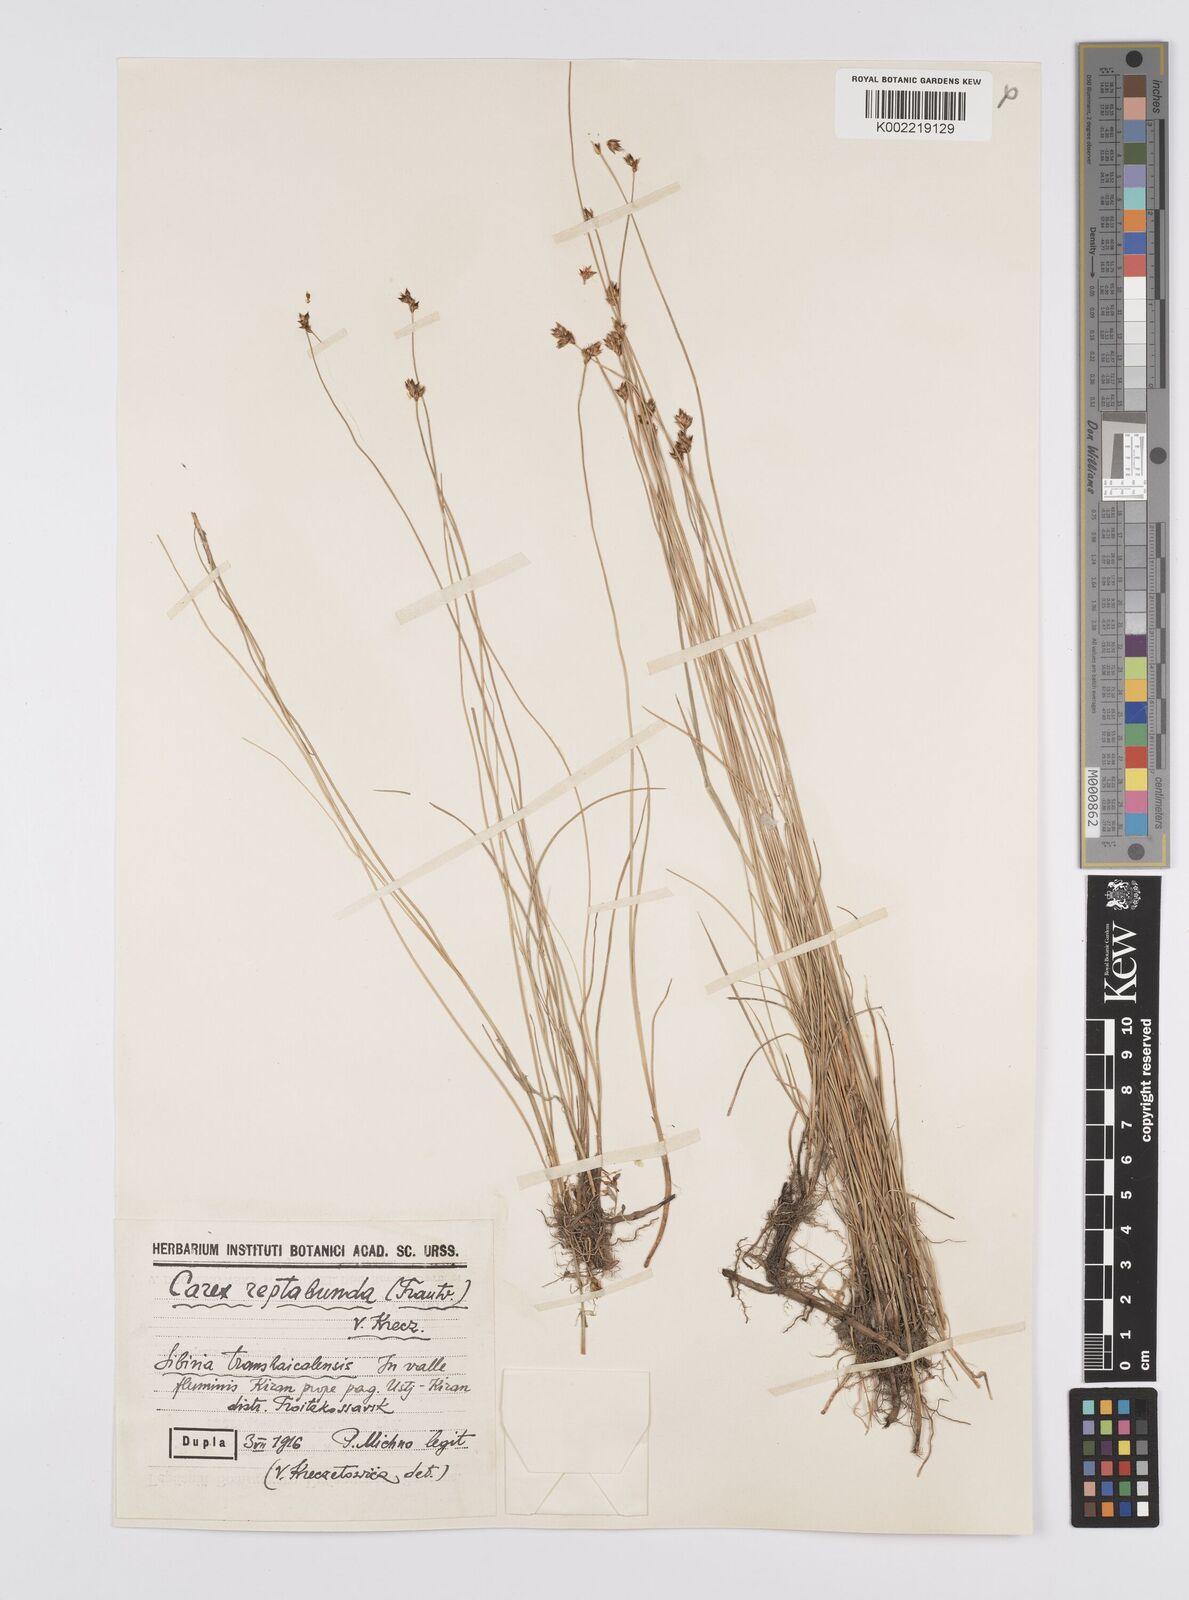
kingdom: Plantae
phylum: Tracheophyta
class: Liliopsida
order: Poales
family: Cyperaceae
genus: Carex
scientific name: Carex reptabunda
